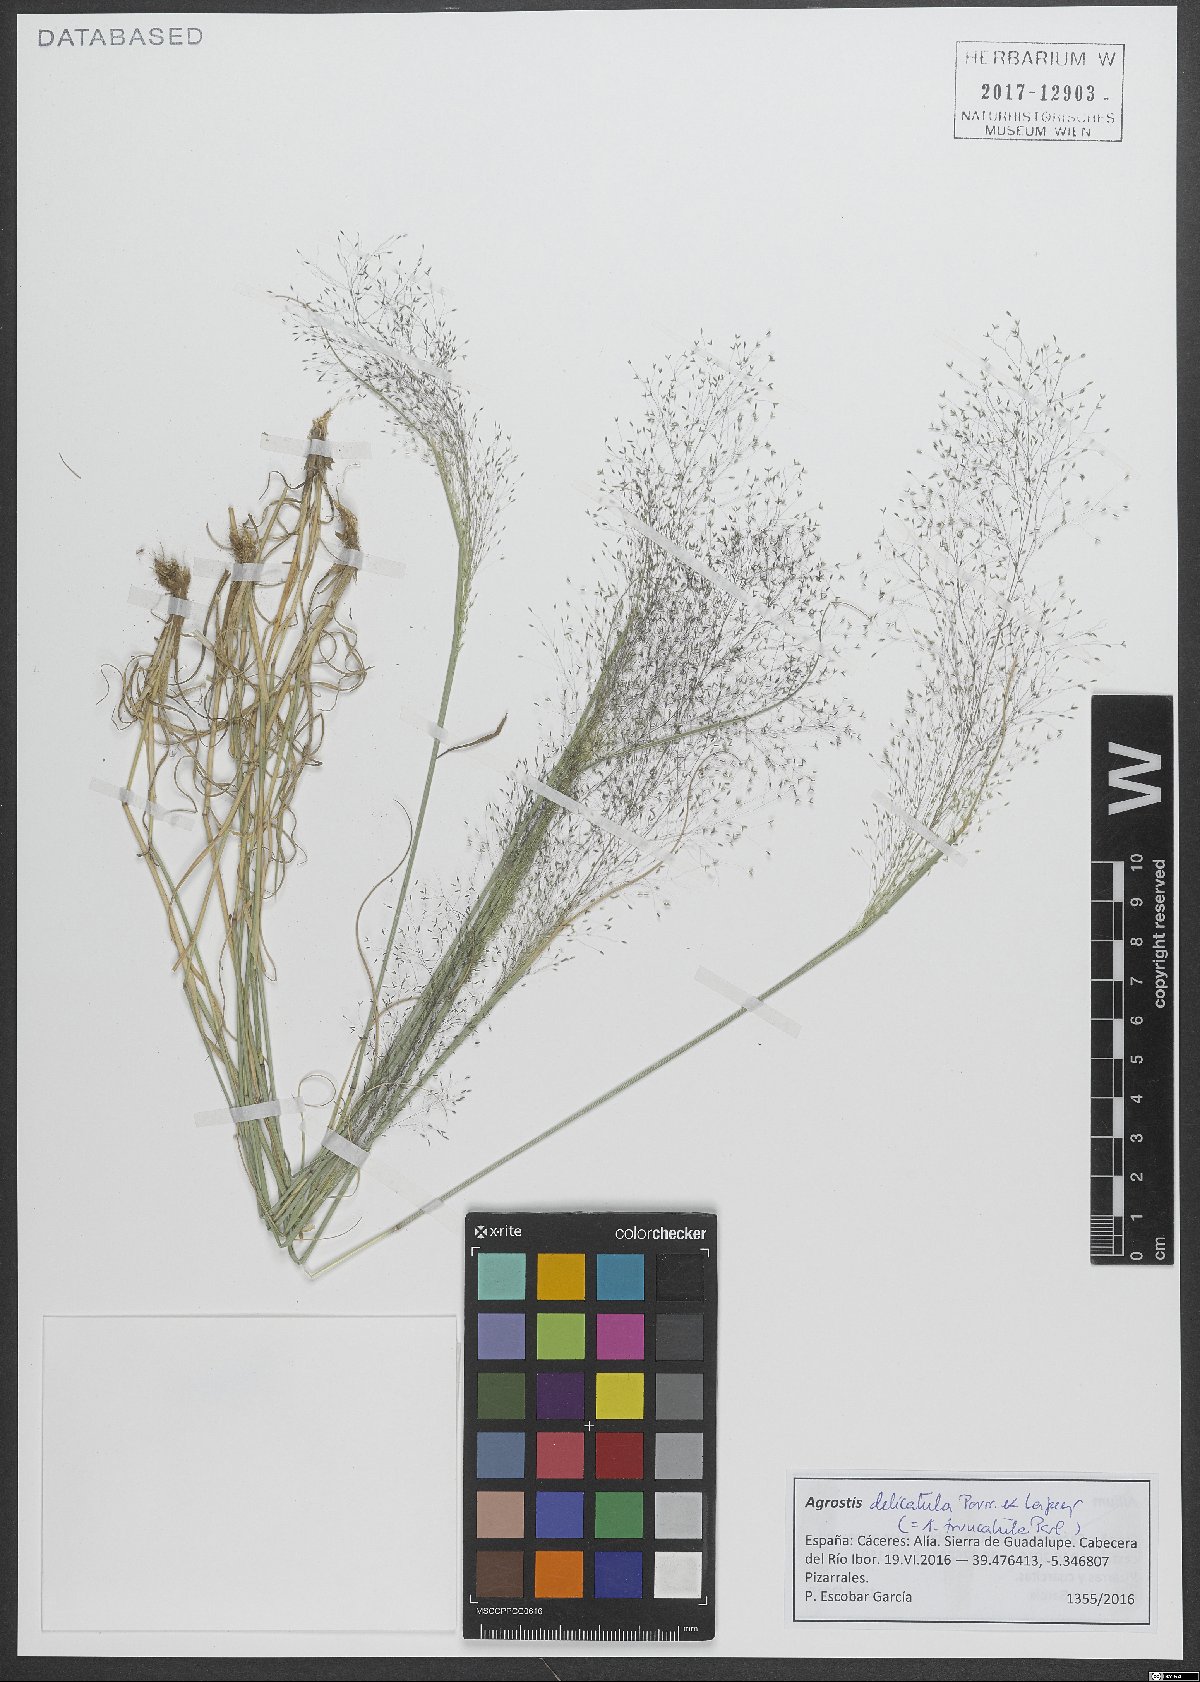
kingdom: Plantae
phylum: Tracheophyta
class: Liliopsida
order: Poales
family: Poaceae
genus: Agrostis
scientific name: Agrostis castellana
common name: Highland bent
